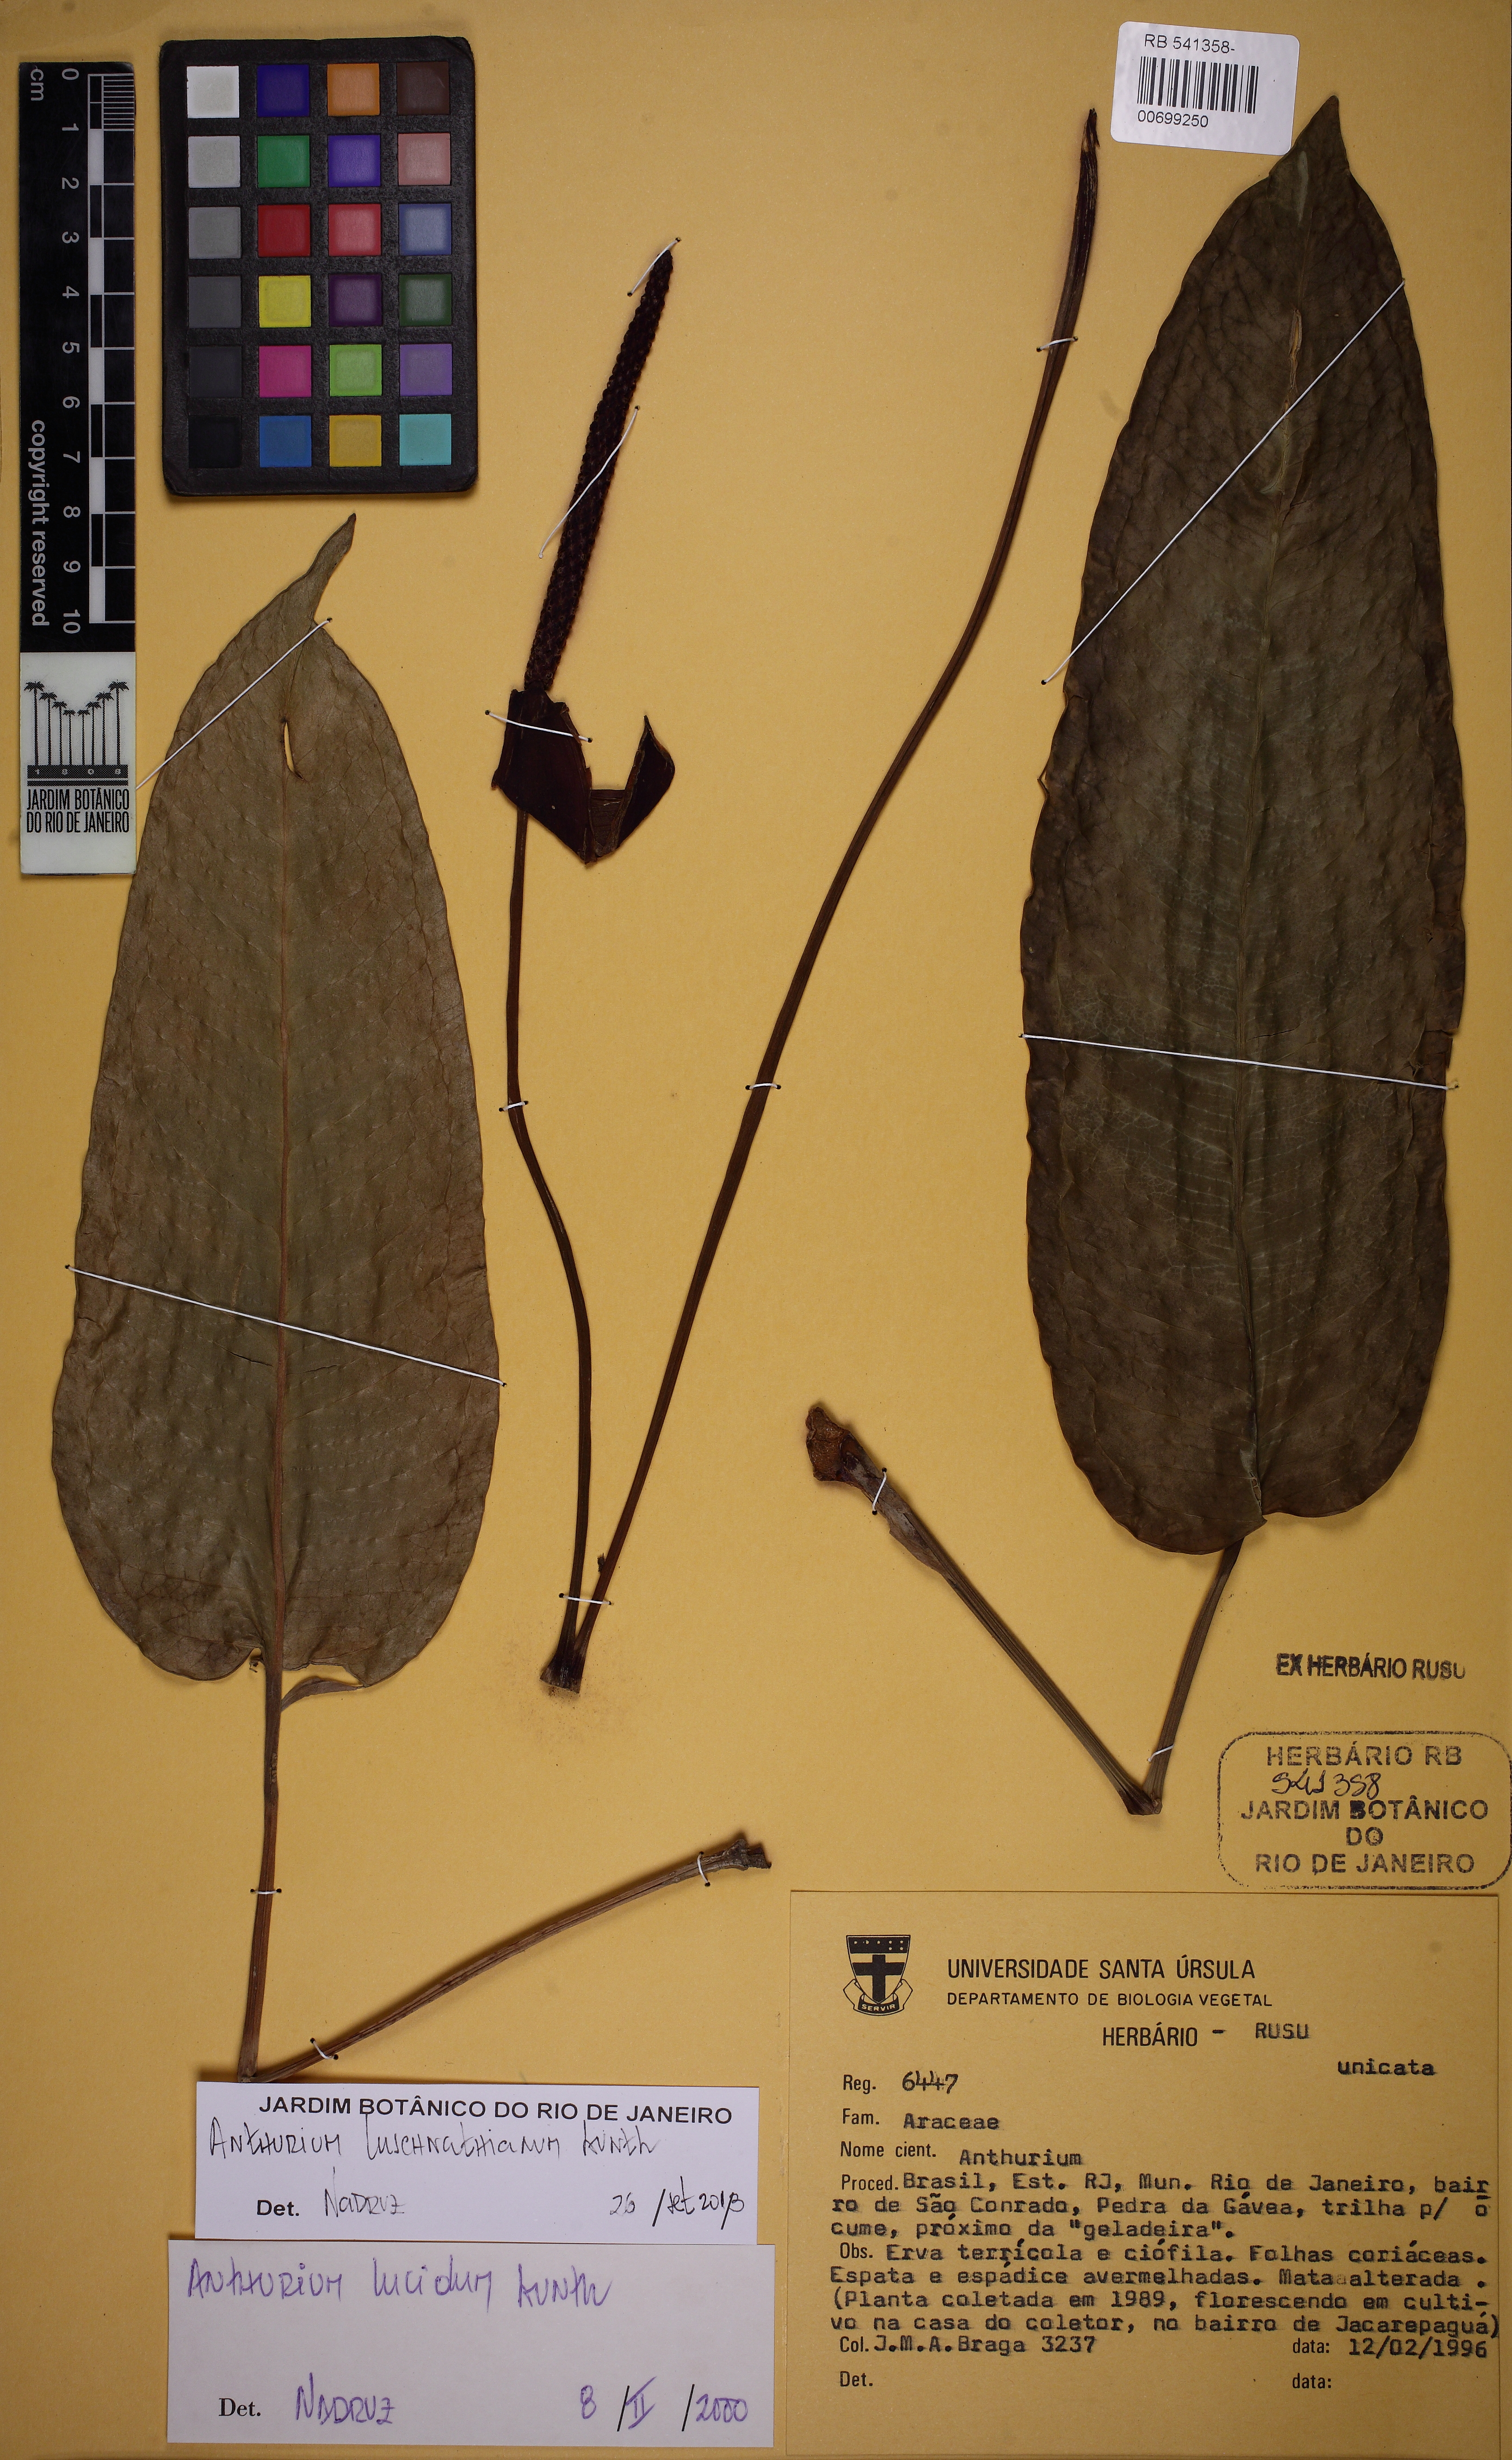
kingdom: Plantae
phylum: Tracheophyta
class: Liliopsida
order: Alismatales
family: Araceae
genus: Anthurium
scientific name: Anthurium luschnathianum
